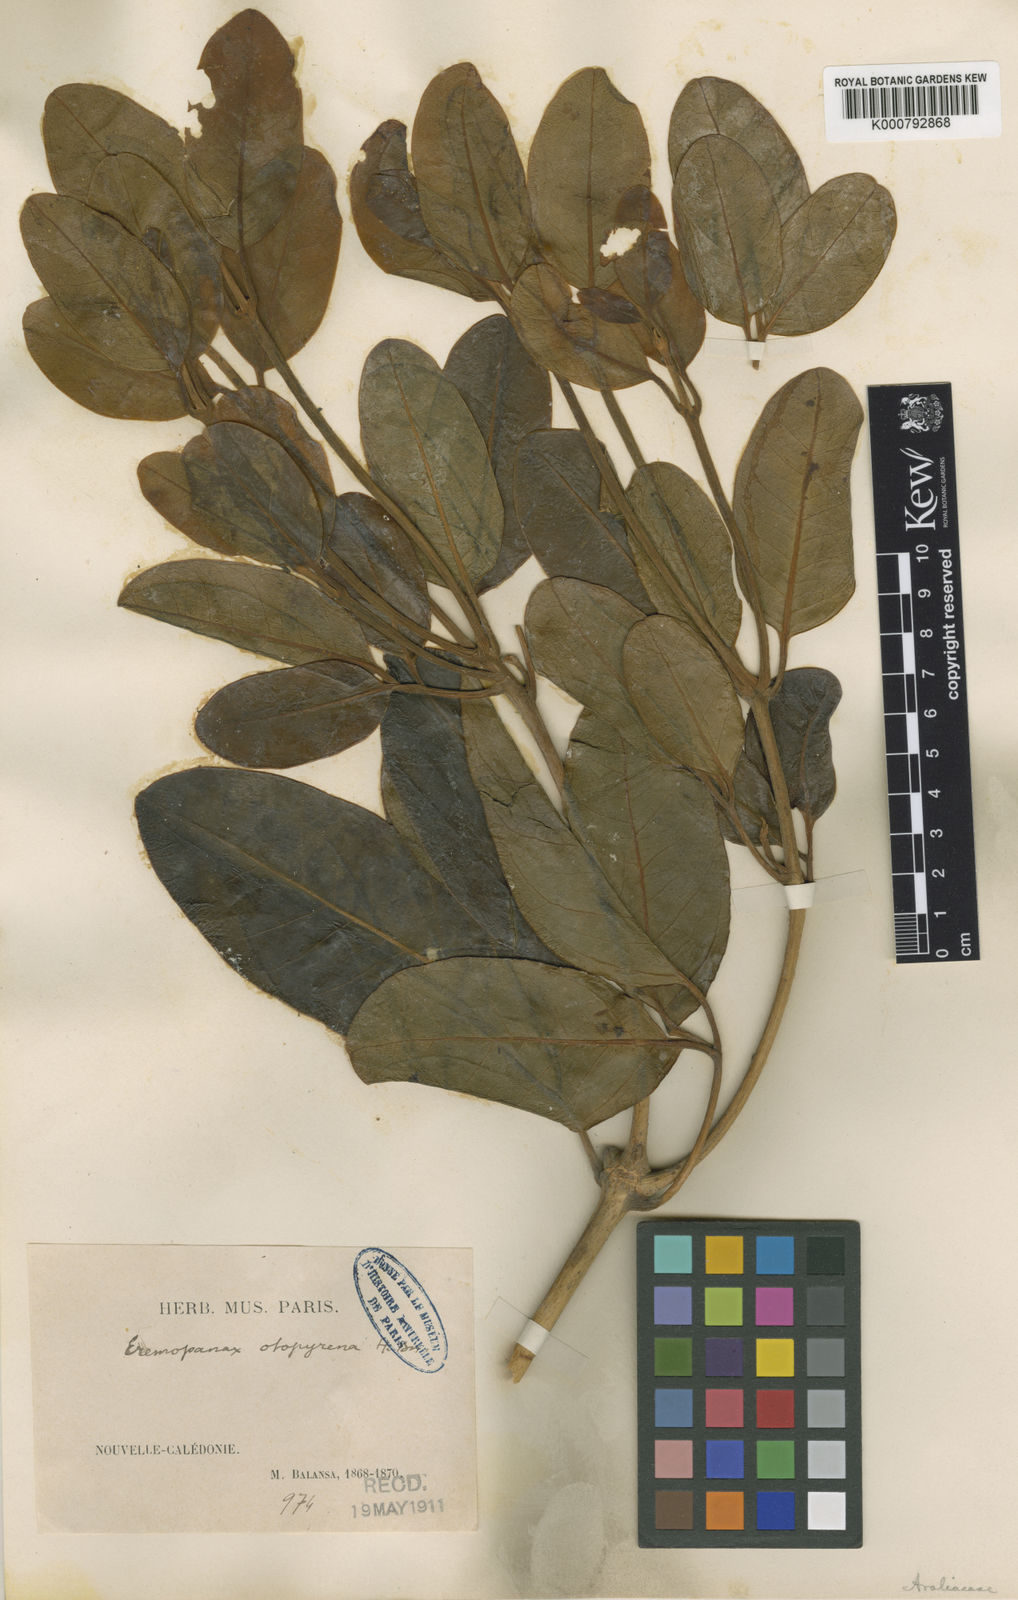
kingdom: Plantae
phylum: Tracheophyta
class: Magnoliopsida
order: Apiales
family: Araliaceae
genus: Polyscias
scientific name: Polyscias otopyrena
